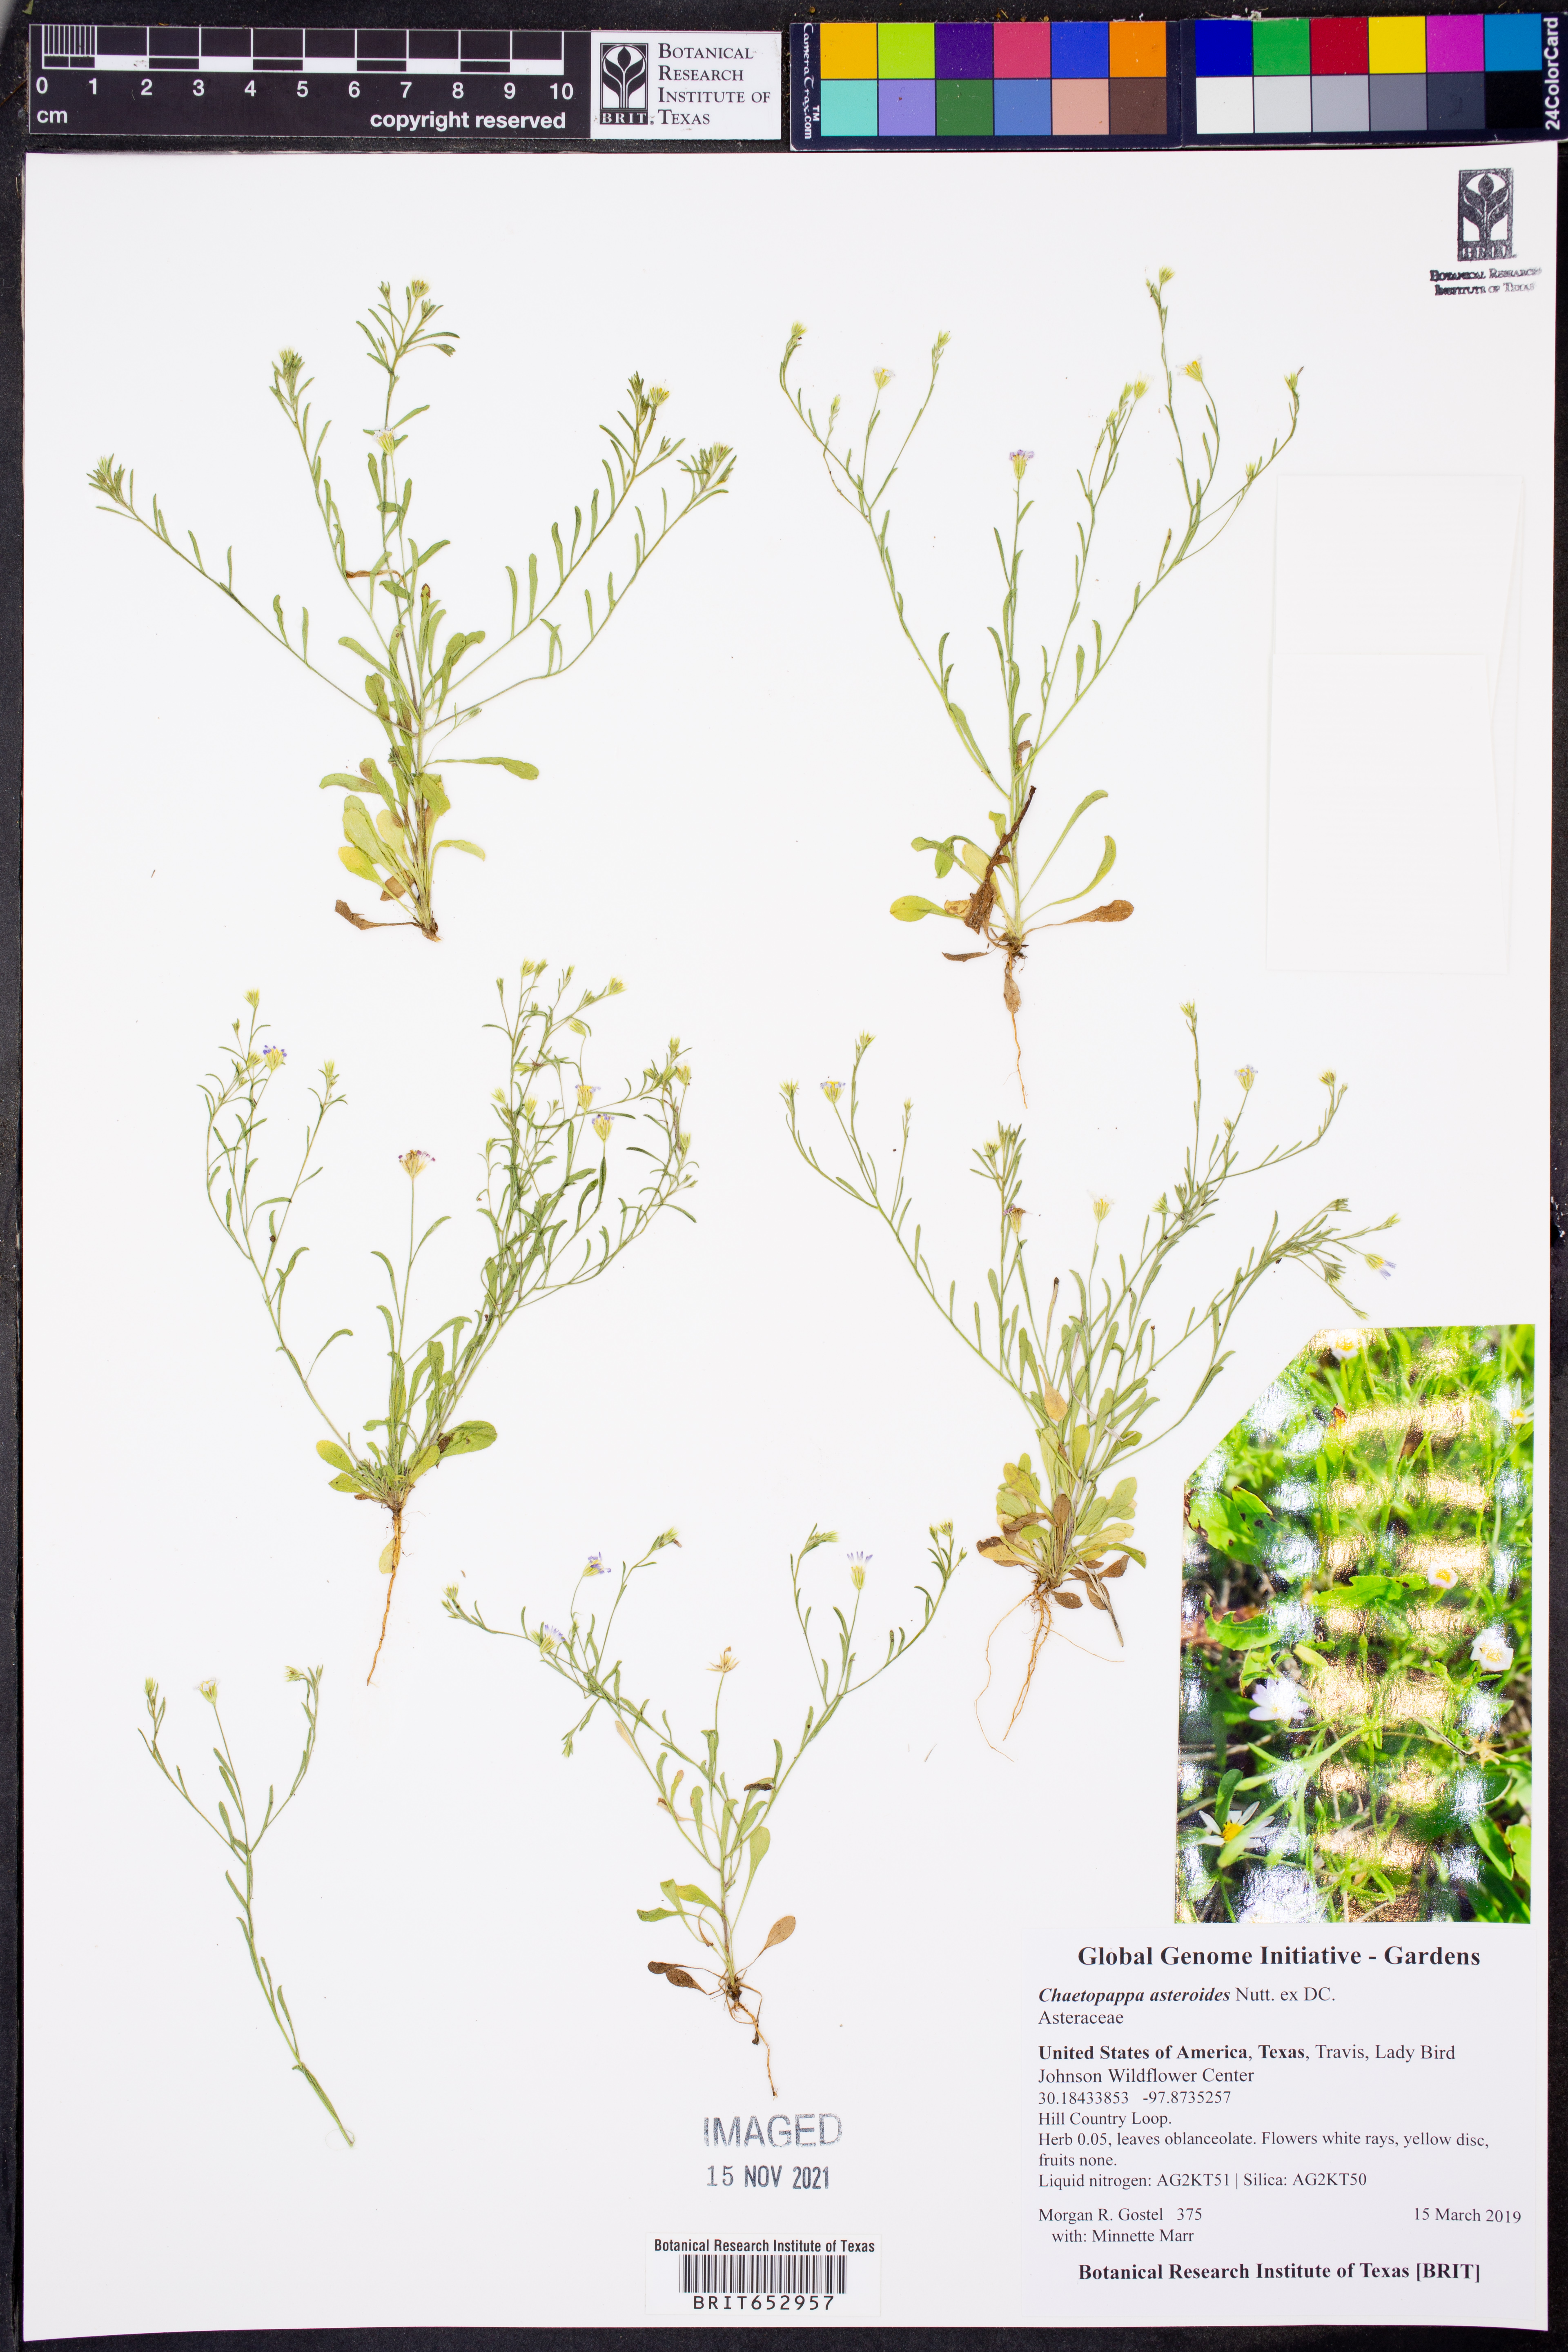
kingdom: Plantae
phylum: Tracheophyta
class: Magnoliopsida
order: Asterales
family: Asteraceae
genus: Chaetopappa
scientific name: Chaetopappa asteroides
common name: Tiny lazy daisy
